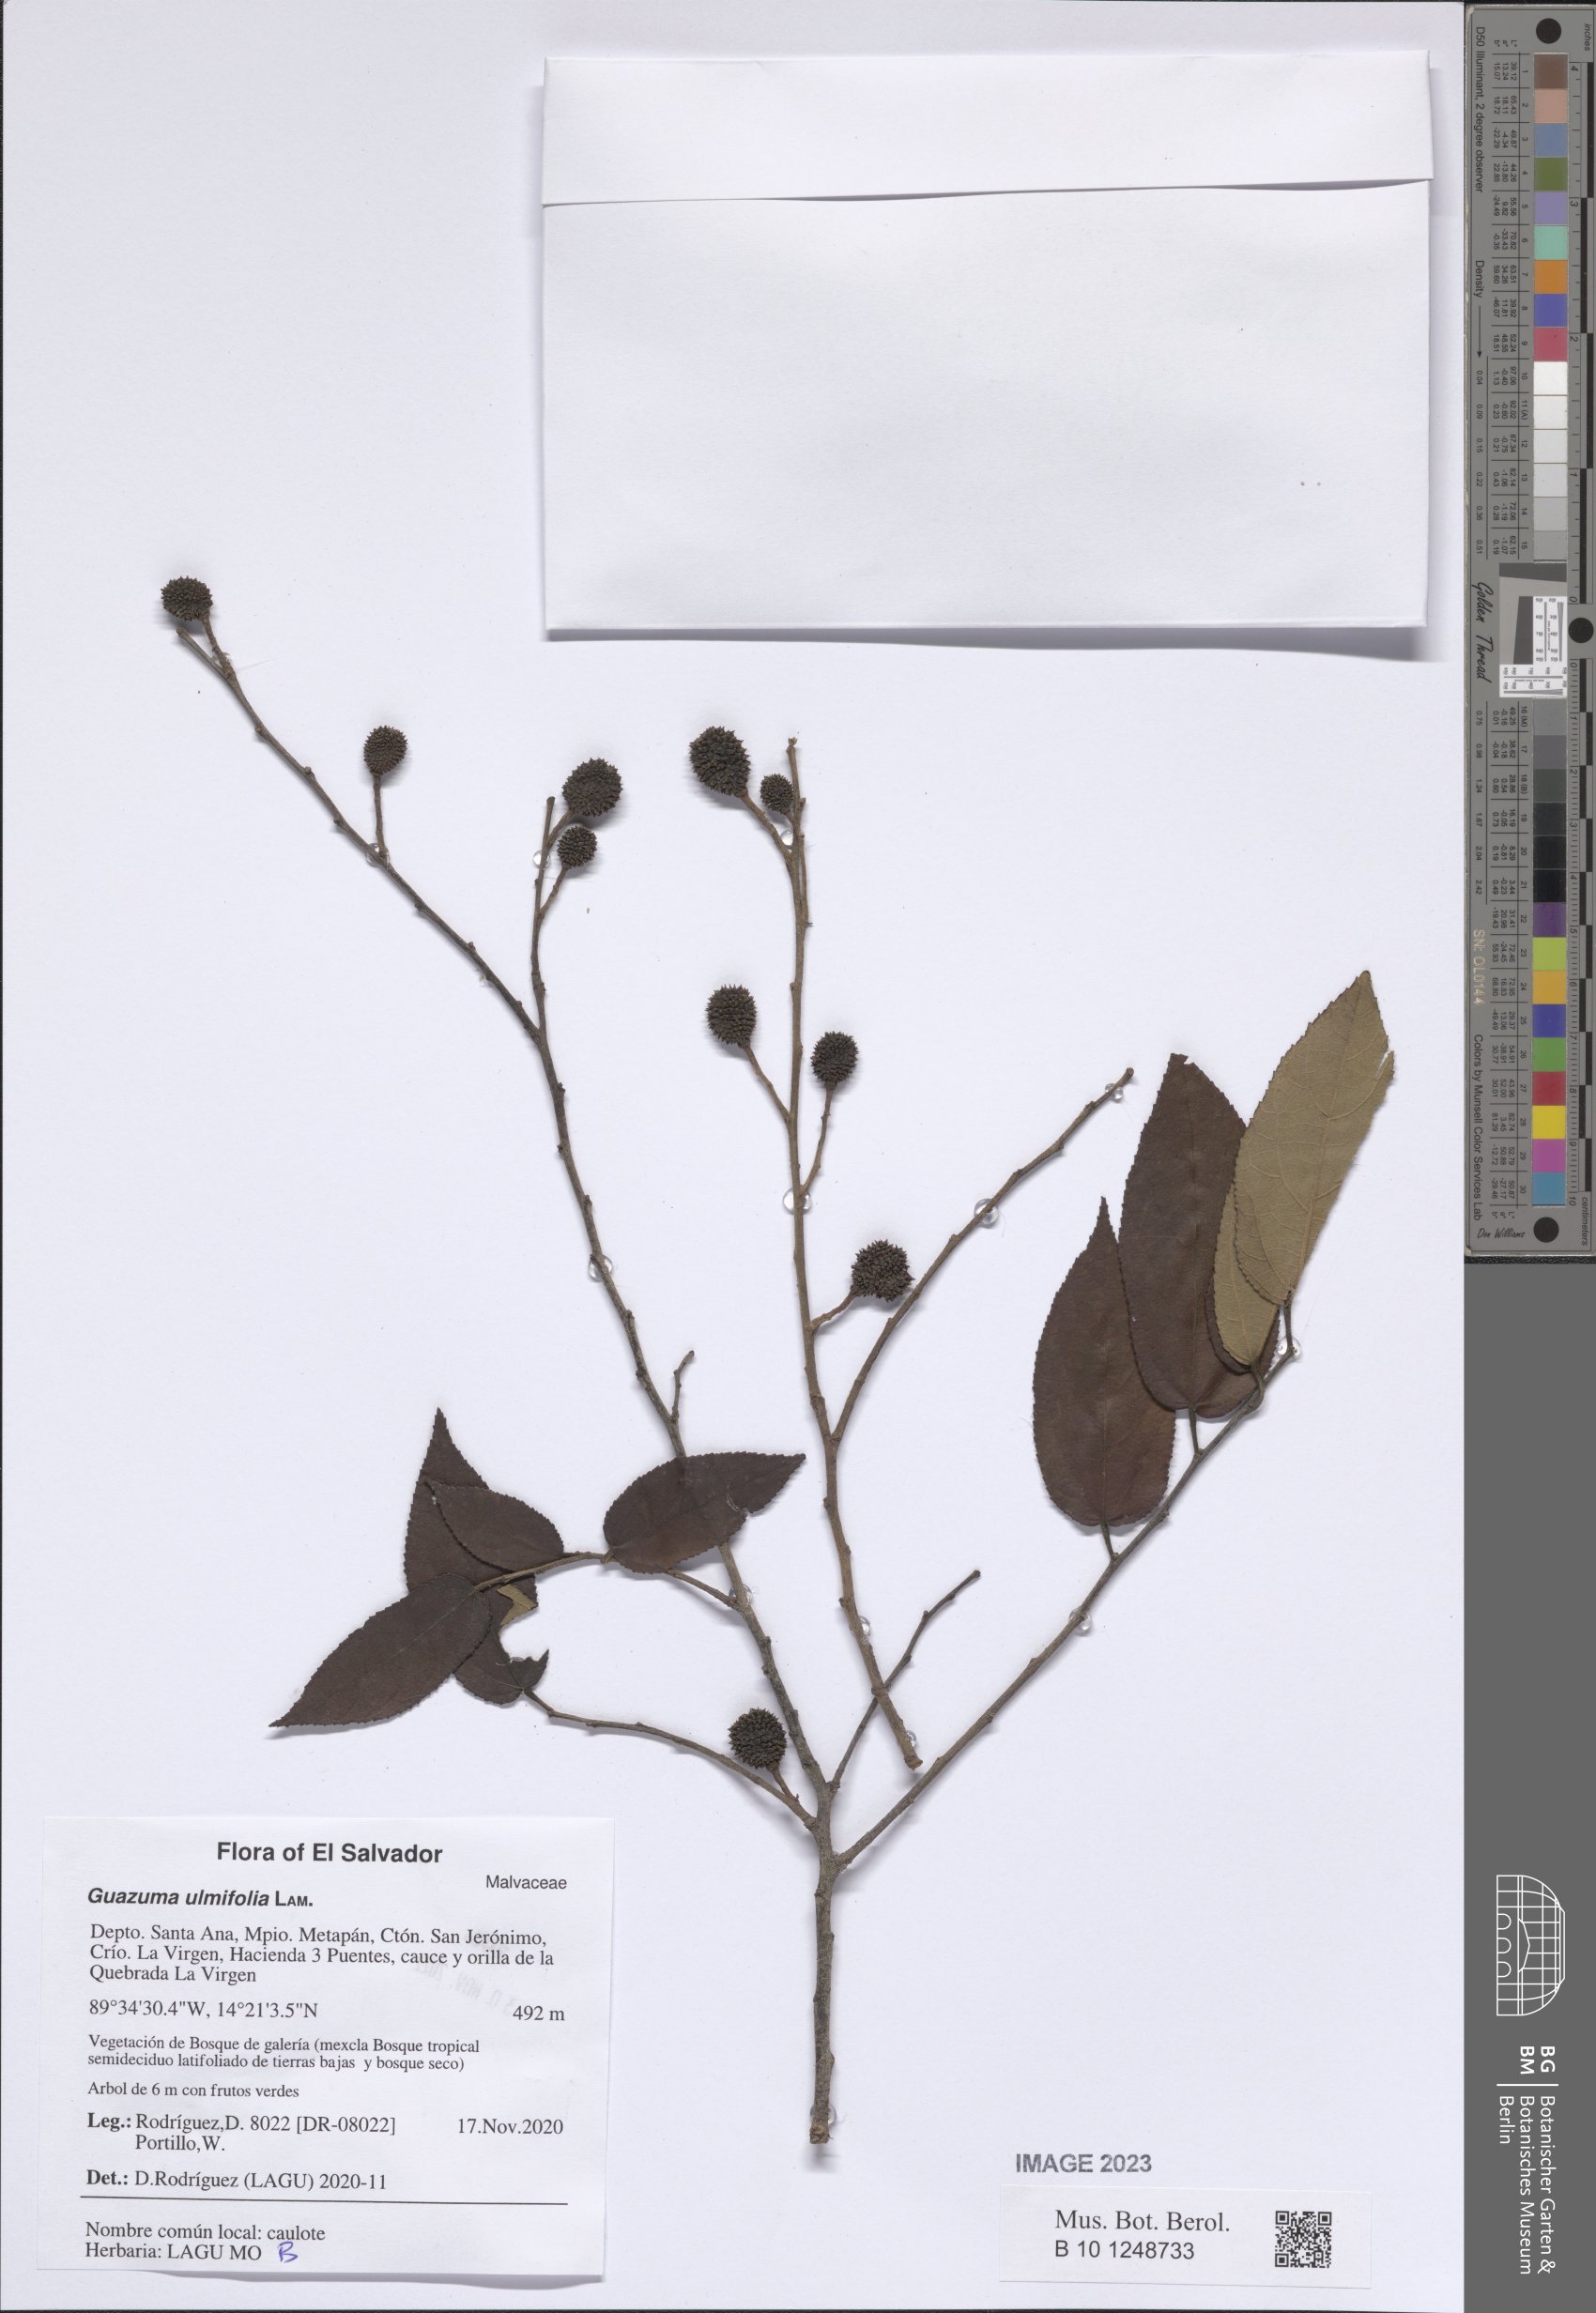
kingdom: Plantae
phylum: Tracheophyta
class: Magnoliopsida
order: Malvales
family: Malvaceae
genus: Guazuma
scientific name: Guazuma ulmifolia
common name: Bastard-cedar
